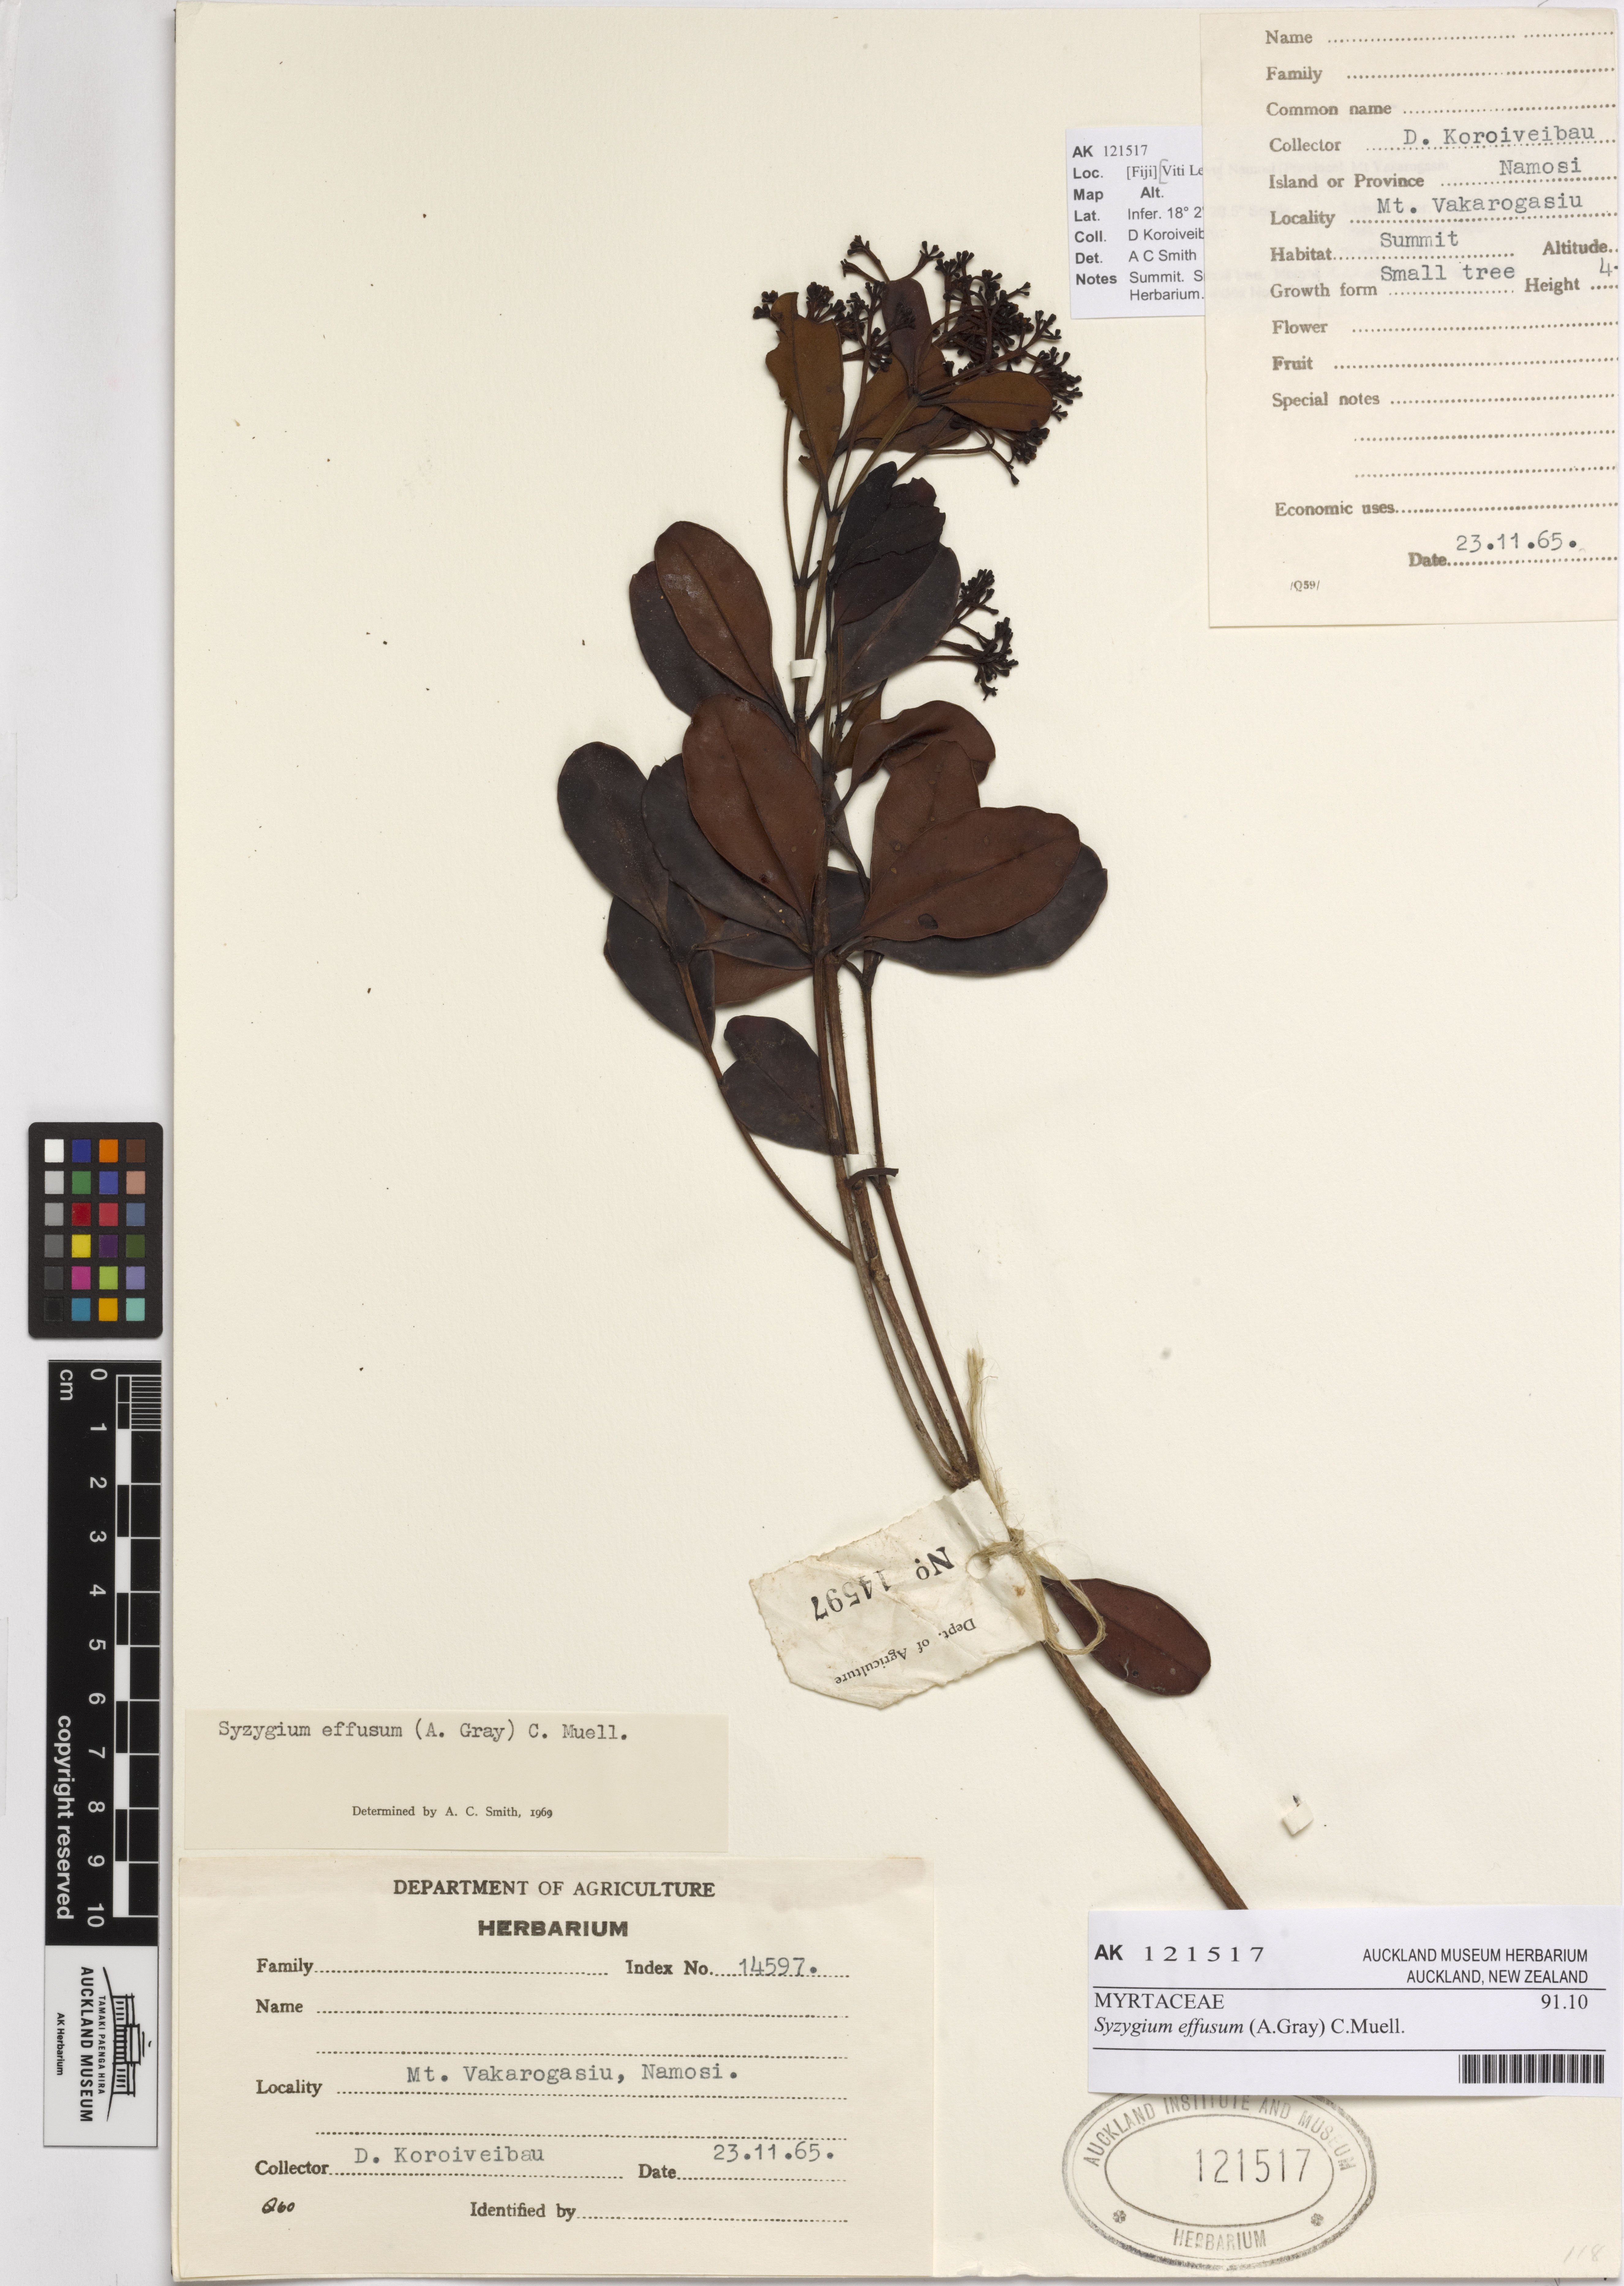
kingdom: Plantae
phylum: Tracheophyta
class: Magnoliopsida
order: Myrtales
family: Myrtaceae
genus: Syzygium
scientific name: Syzygium effusum
